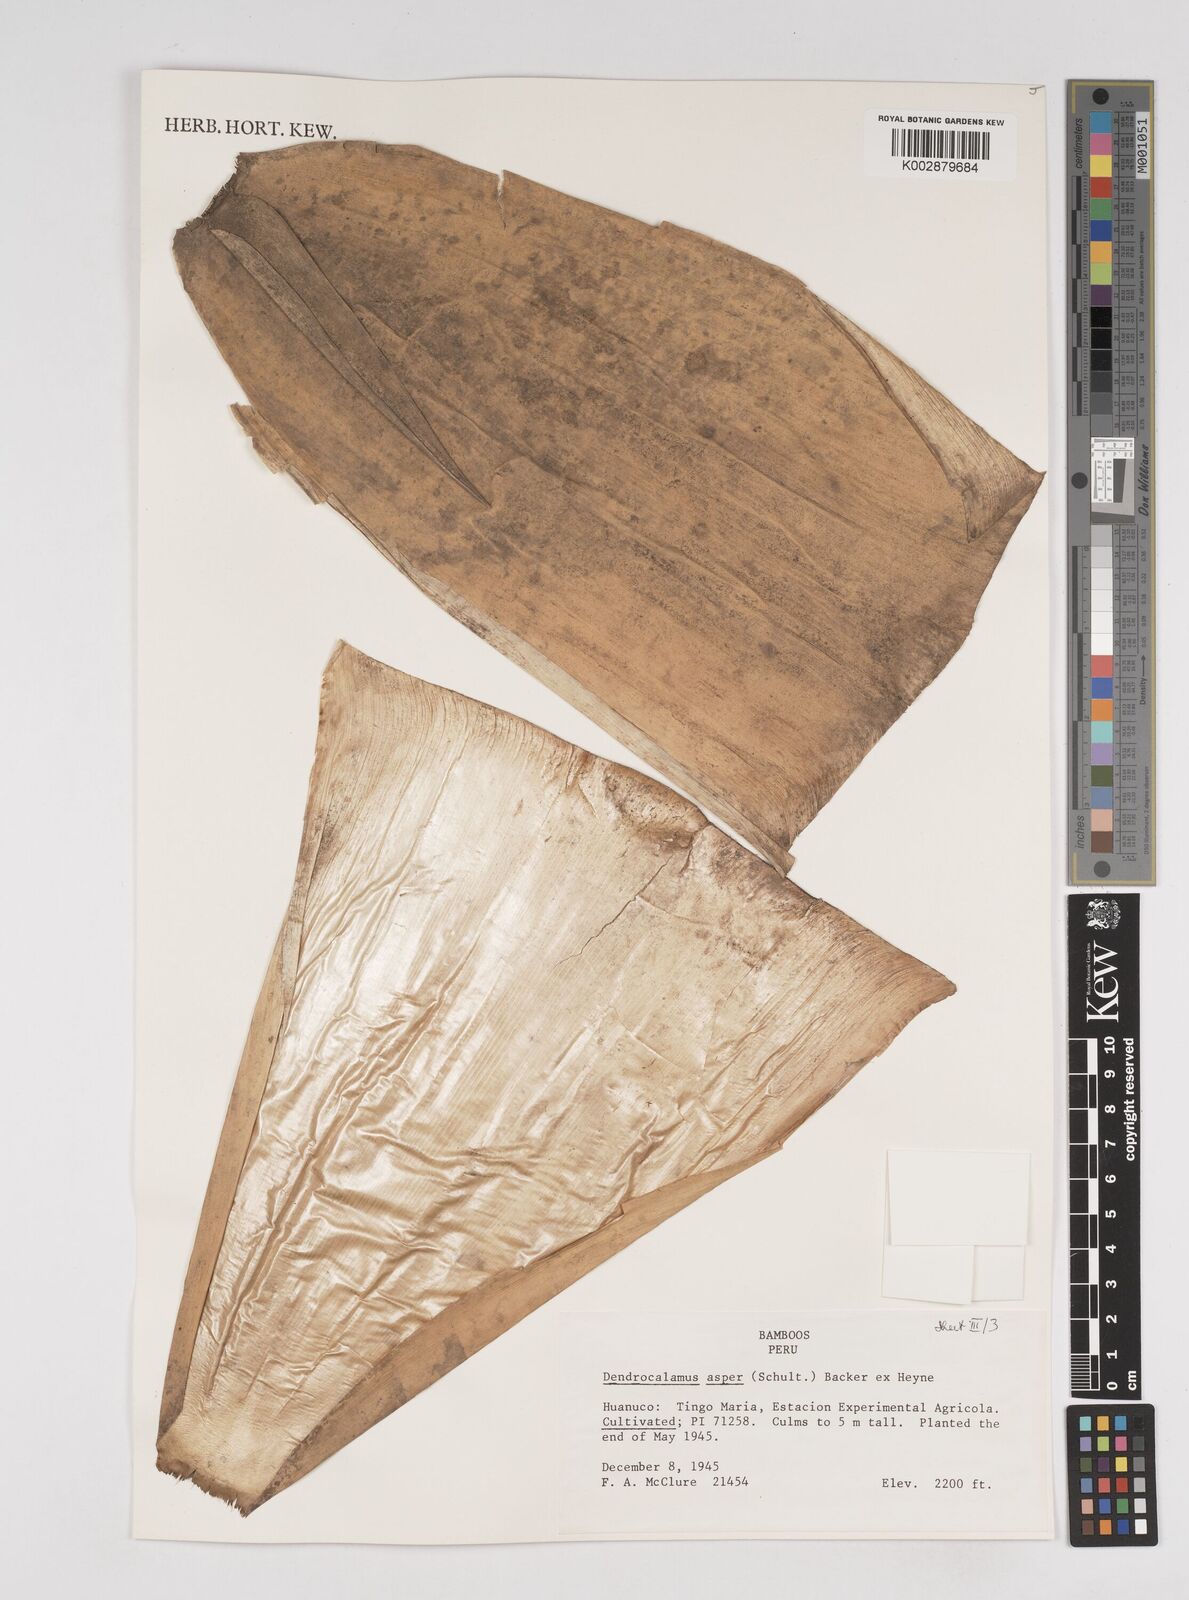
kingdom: Plantae
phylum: Tracheophyta
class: Liliopsida
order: Poales
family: Poaceae
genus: Dendrocalamus
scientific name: Dendrocalamus asper
